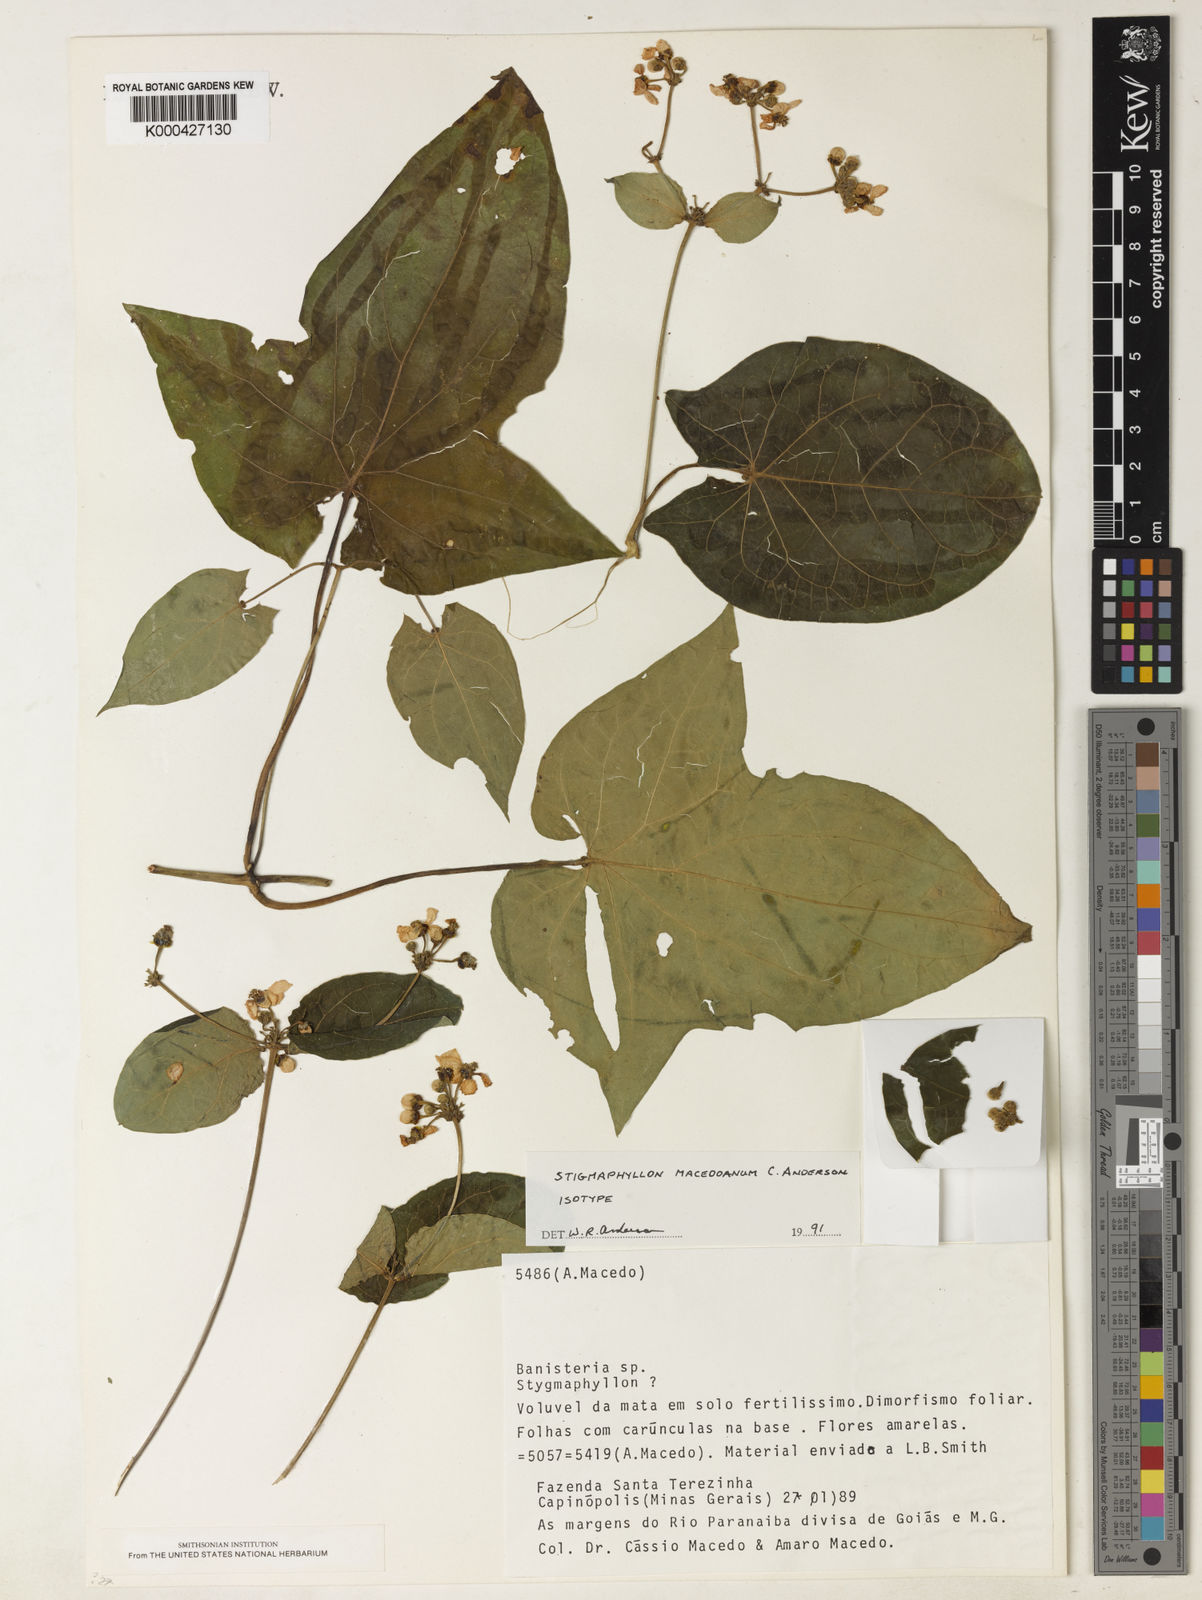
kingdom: Plantae
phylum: Tracheophyta
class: Magnoliopsida
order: Malpighiales
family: Malpighiaceae
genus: Stigmaphyllon
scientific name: Stigmaphyllon macedoanum
